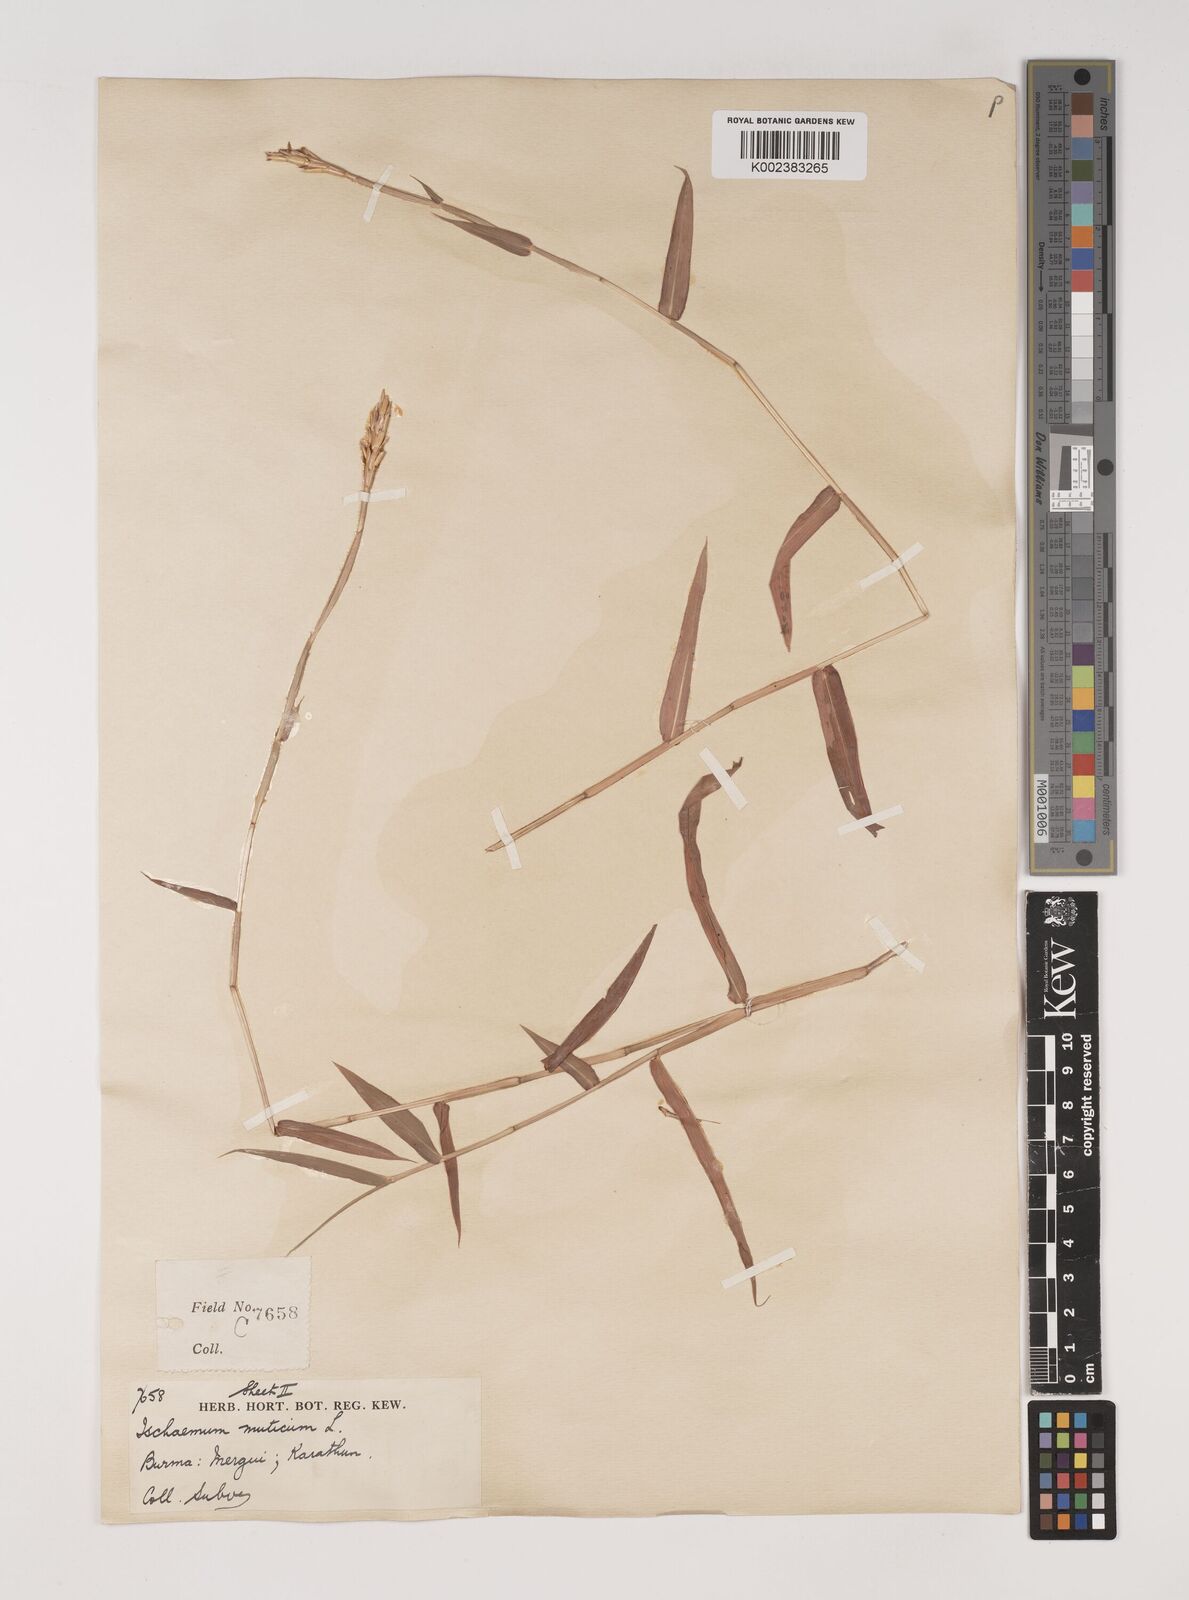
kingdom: Plantae
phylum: Tracheophyta
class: Liliopsida
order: Poales
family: Poaceae
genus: Ischaemum
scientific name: Ischaemum muticum
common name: Drought grass
